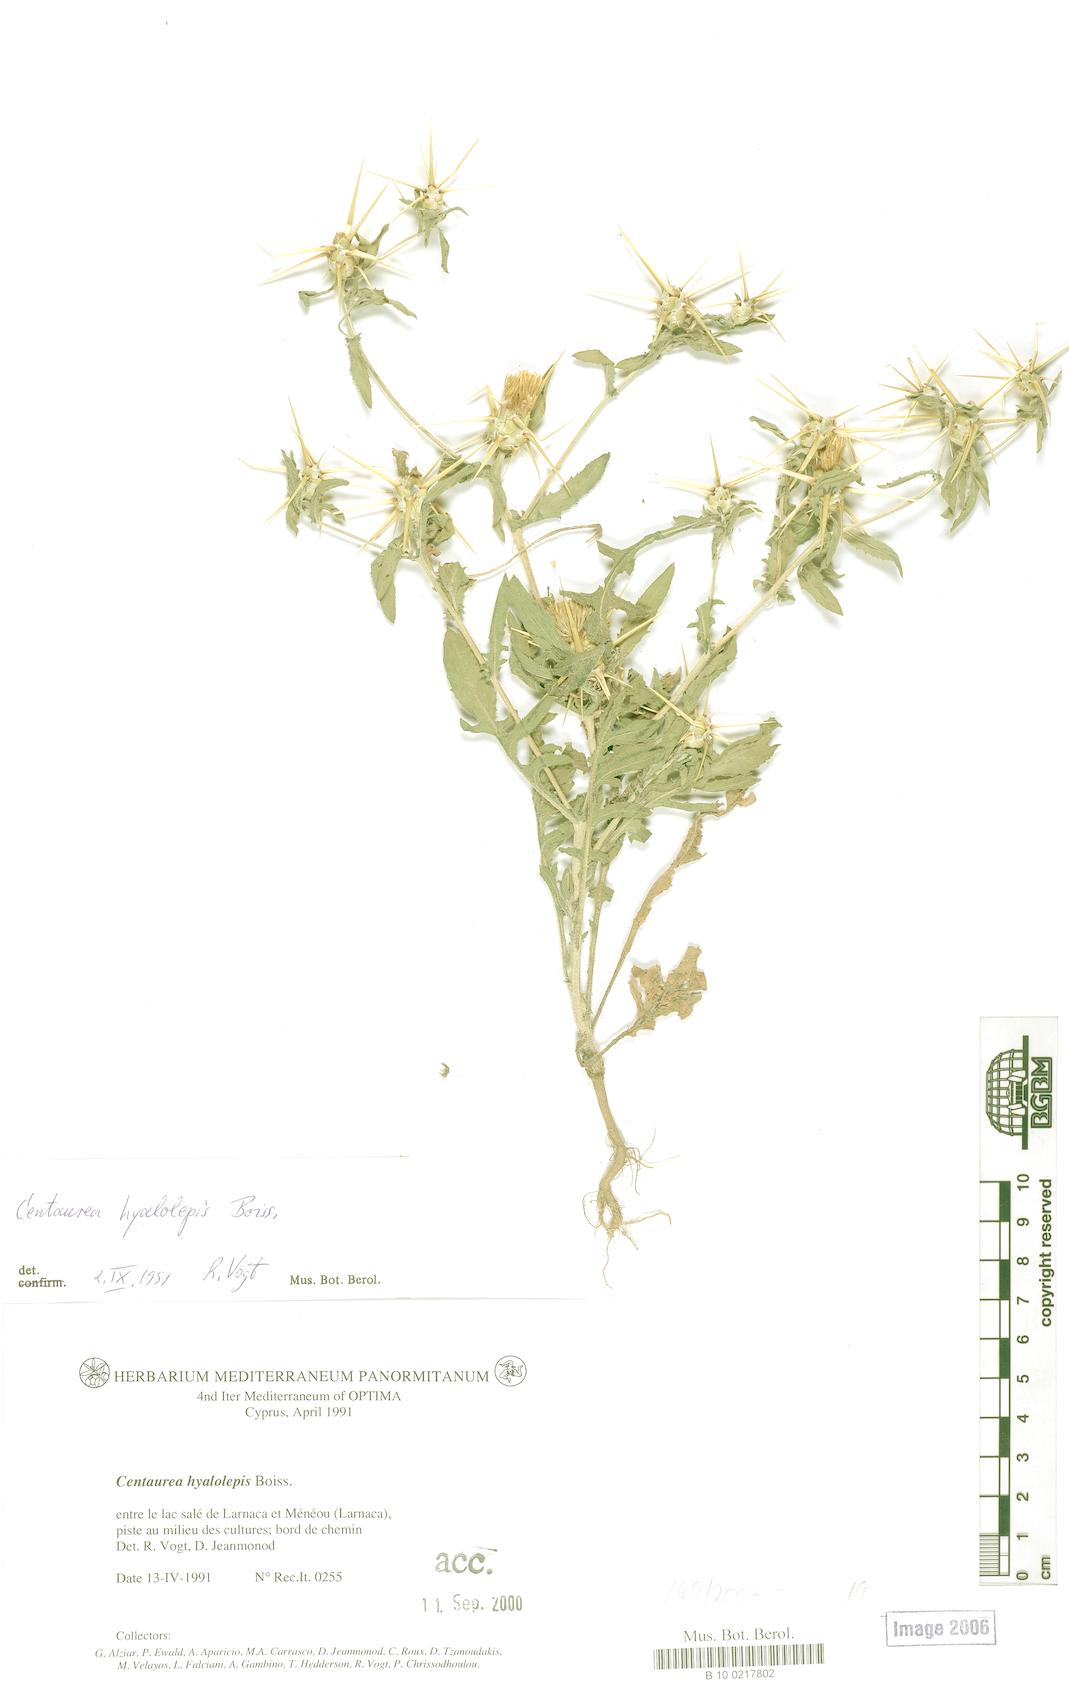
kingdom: Plantae
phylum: Tracheophyta
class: Magnoliopsida
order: Asterales
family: Asteraceae
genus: Centaurea
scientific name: Centaurea hyalolepis
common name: Eastern star-thistle
